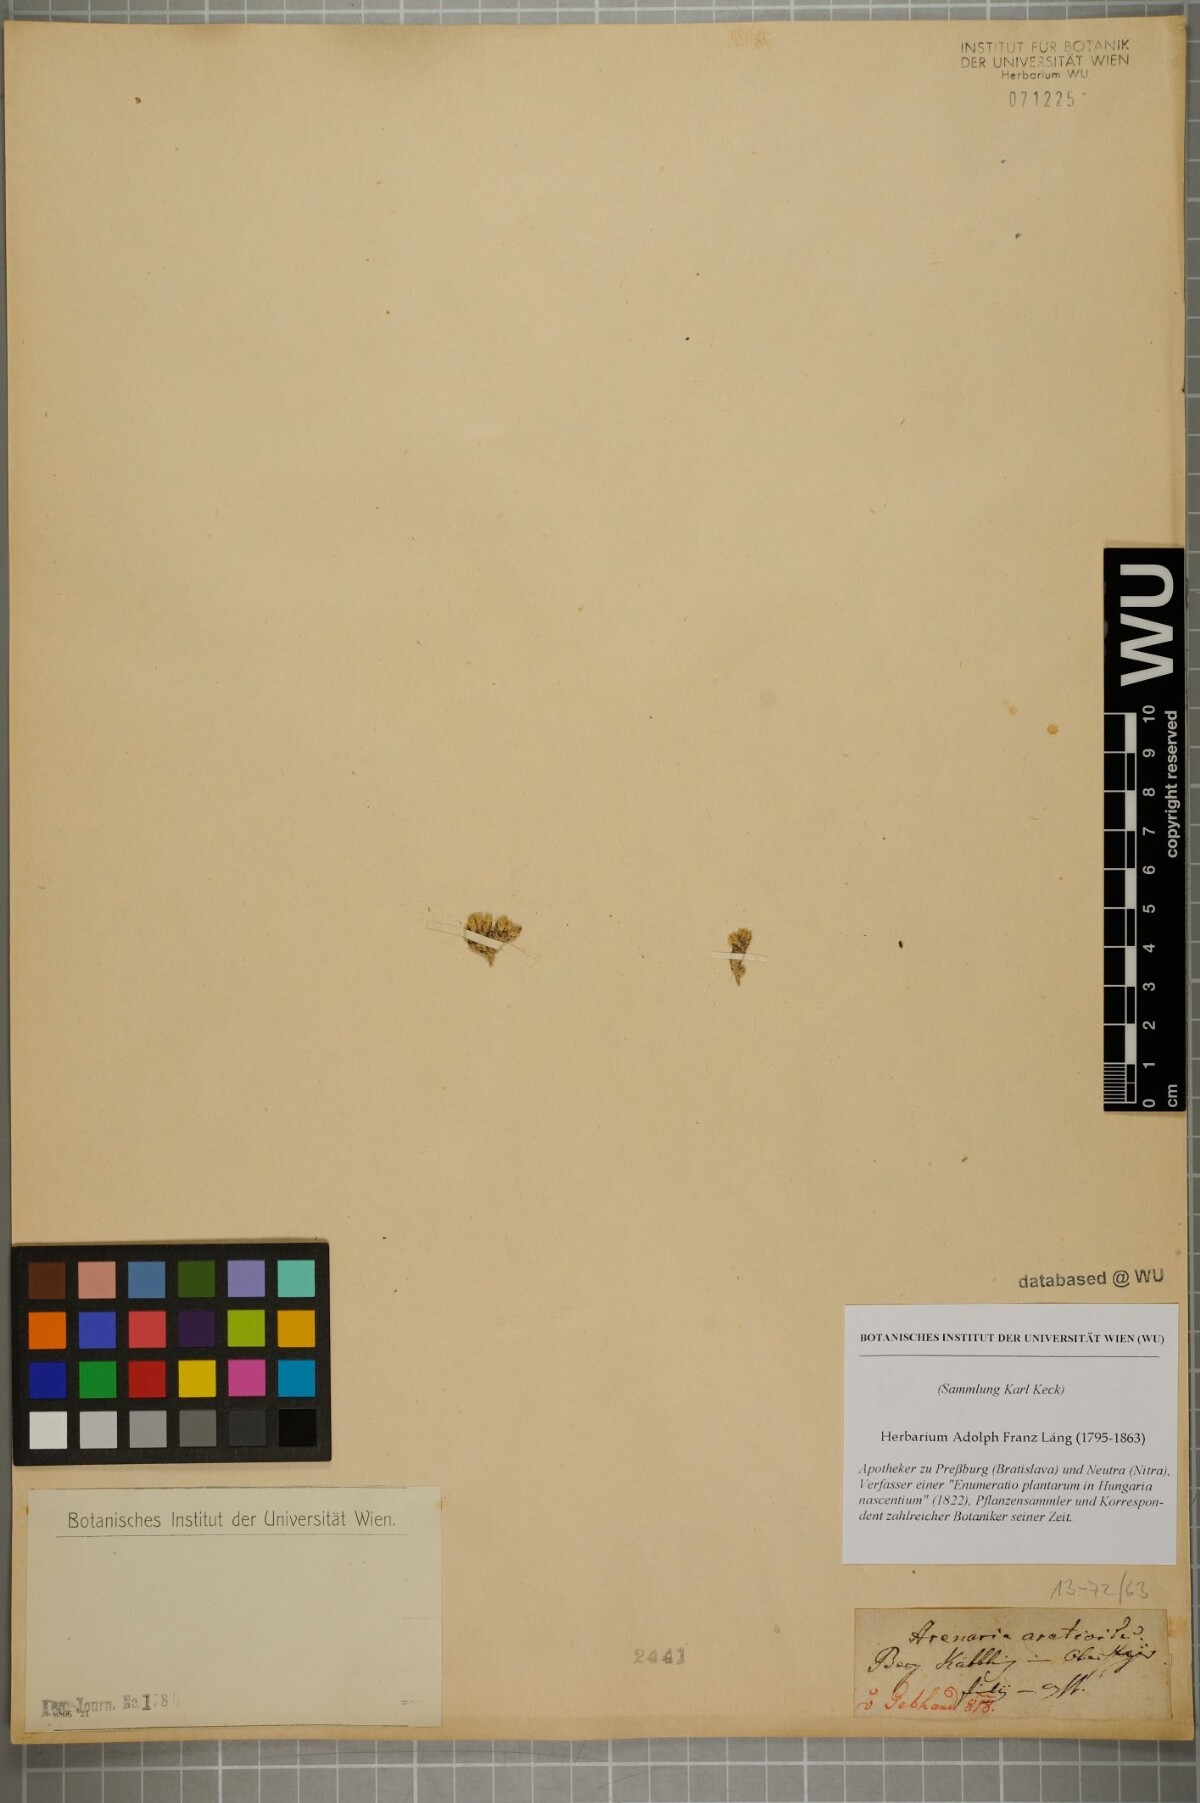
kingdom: Plantae
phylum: Tracheophyta
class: Magnoliopsida
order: Caryophyllales
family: Caryophyllaceae
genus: Facchinia
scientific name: Facchinia cherlerioides
